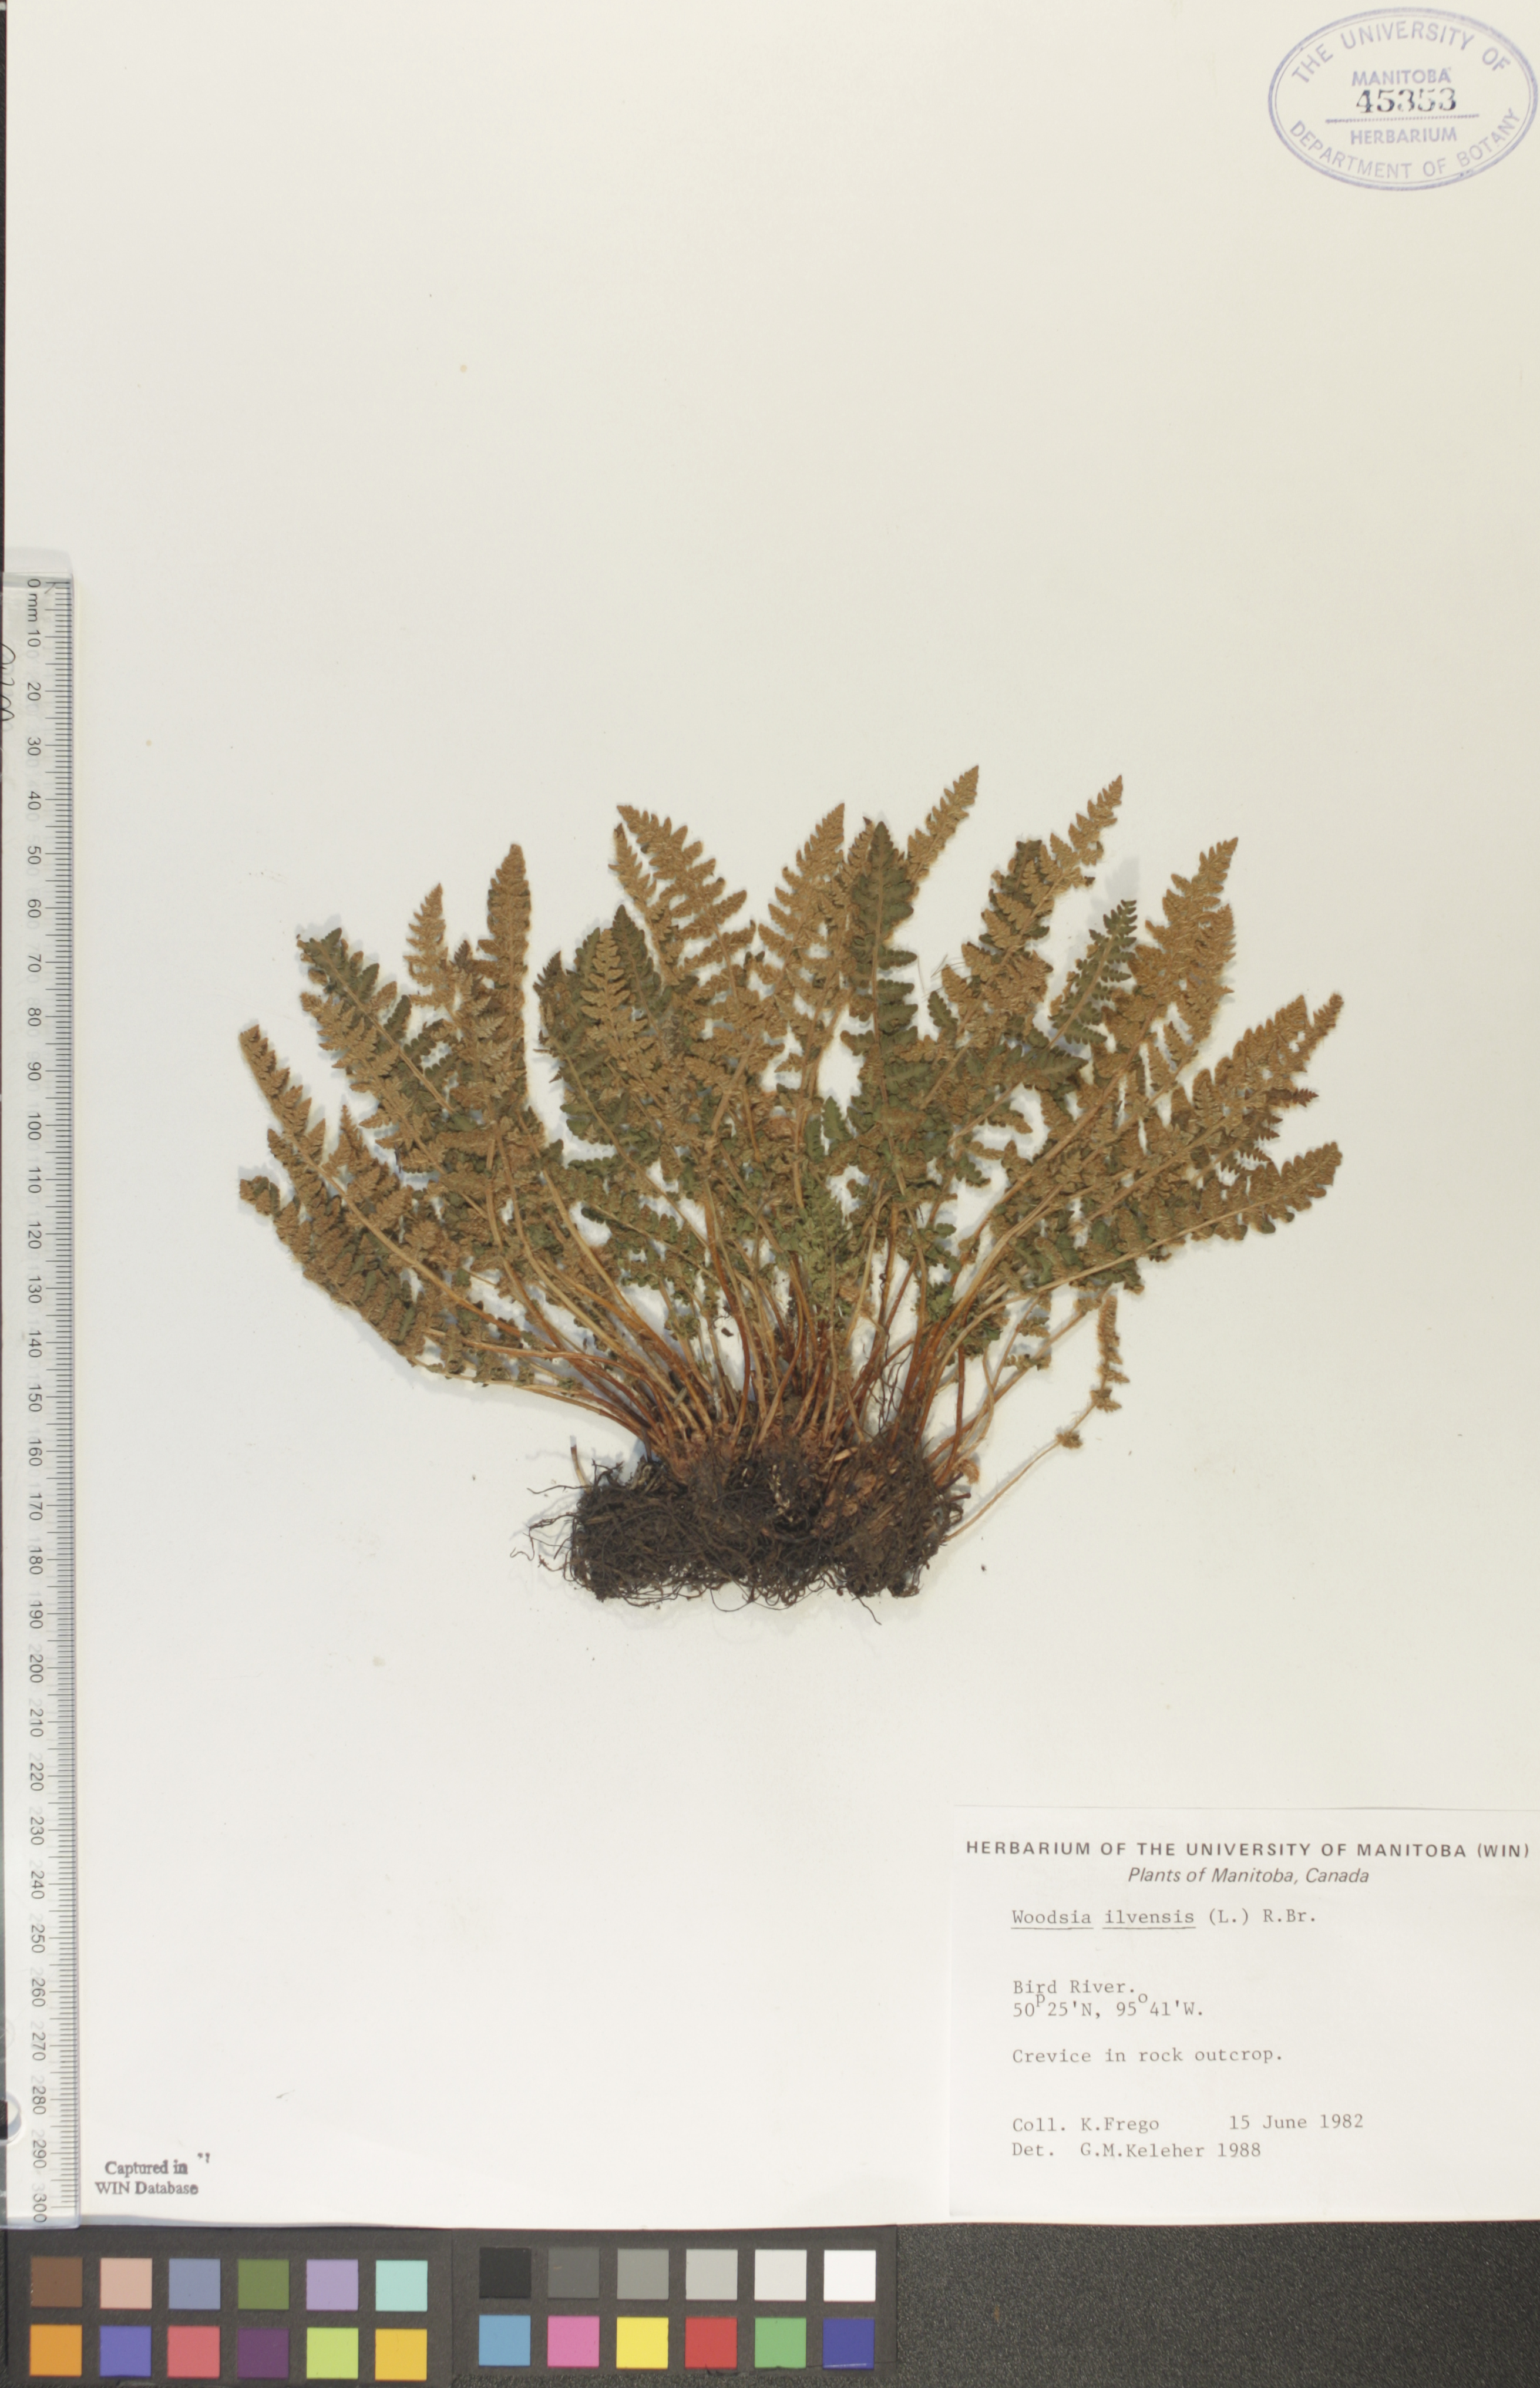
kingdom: Plantae
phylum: Tracheophyta
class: Polypodiopsida
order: Polypodiales
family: Woodsiaceae
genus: Woodsia
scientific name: Woodsia ilvensis
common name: Fragrant woodsia
